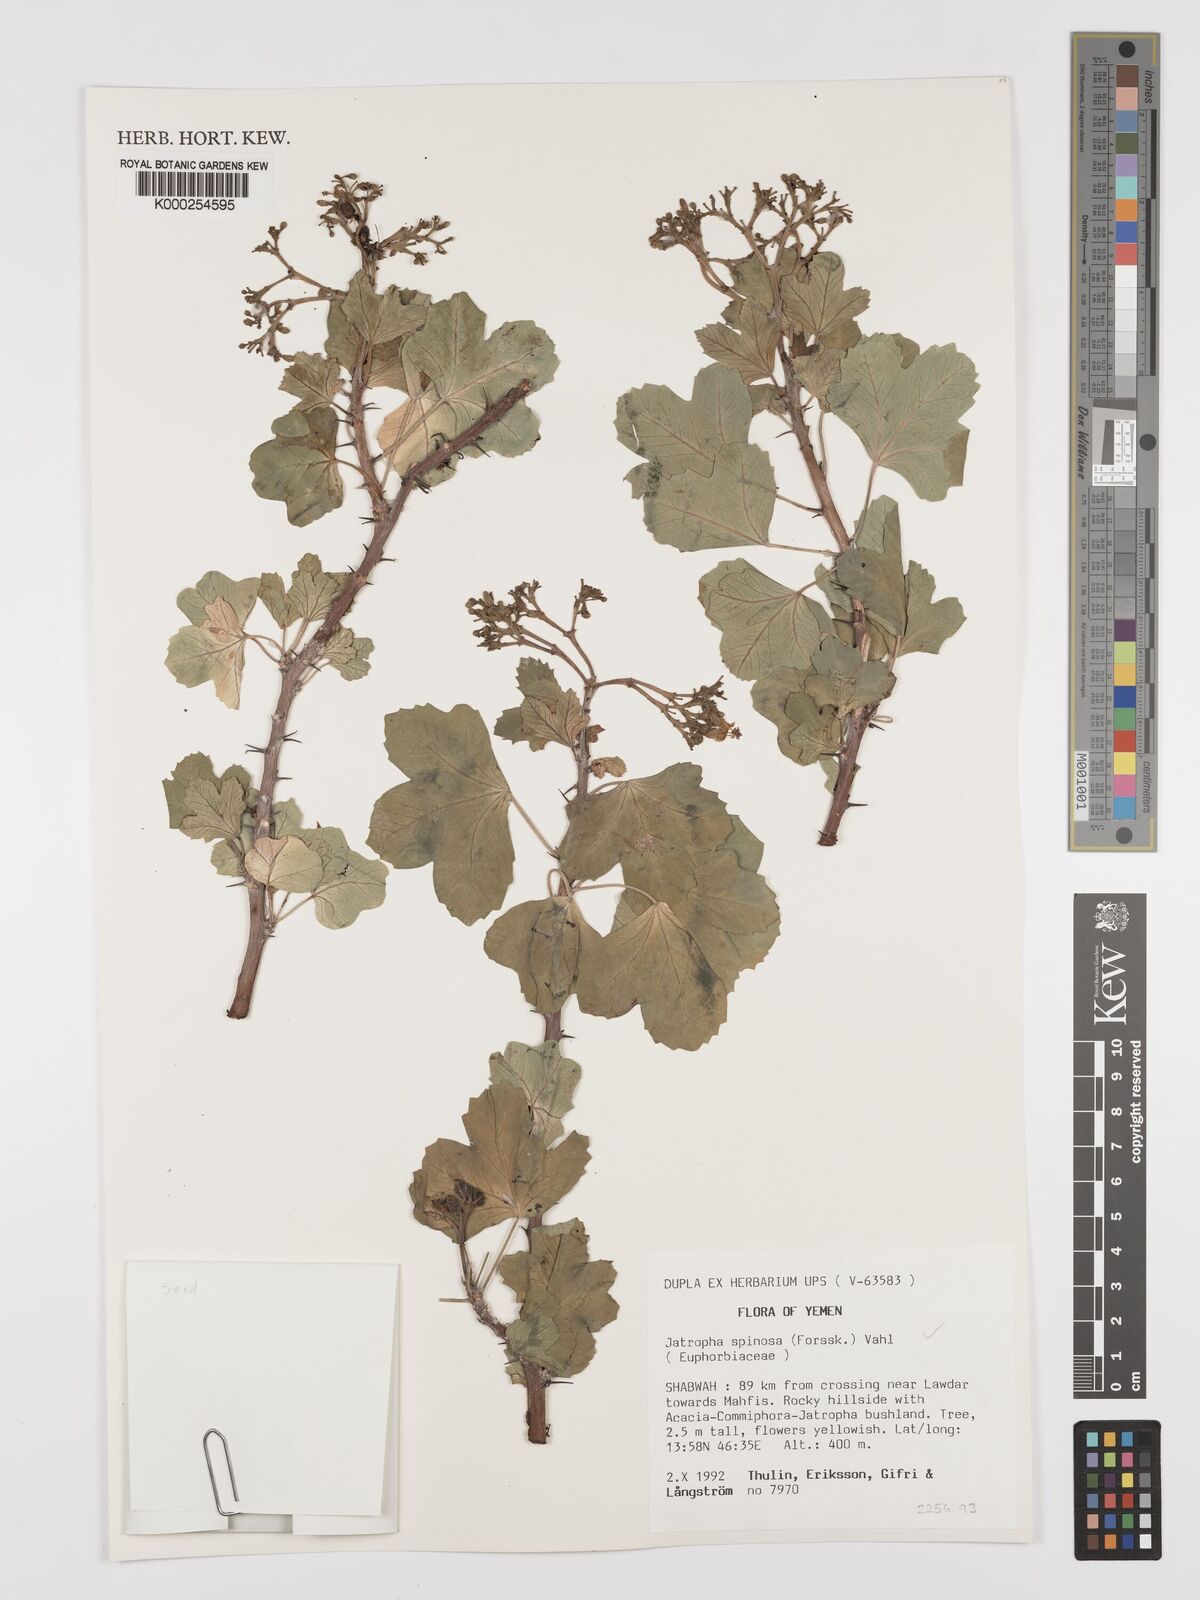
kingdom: Plantae
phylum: Tracheophyta
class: Magnoliopsida
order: Malpighiales
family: Euphorbiaceae
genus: Jatropha
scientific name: Jatropha spinosa
